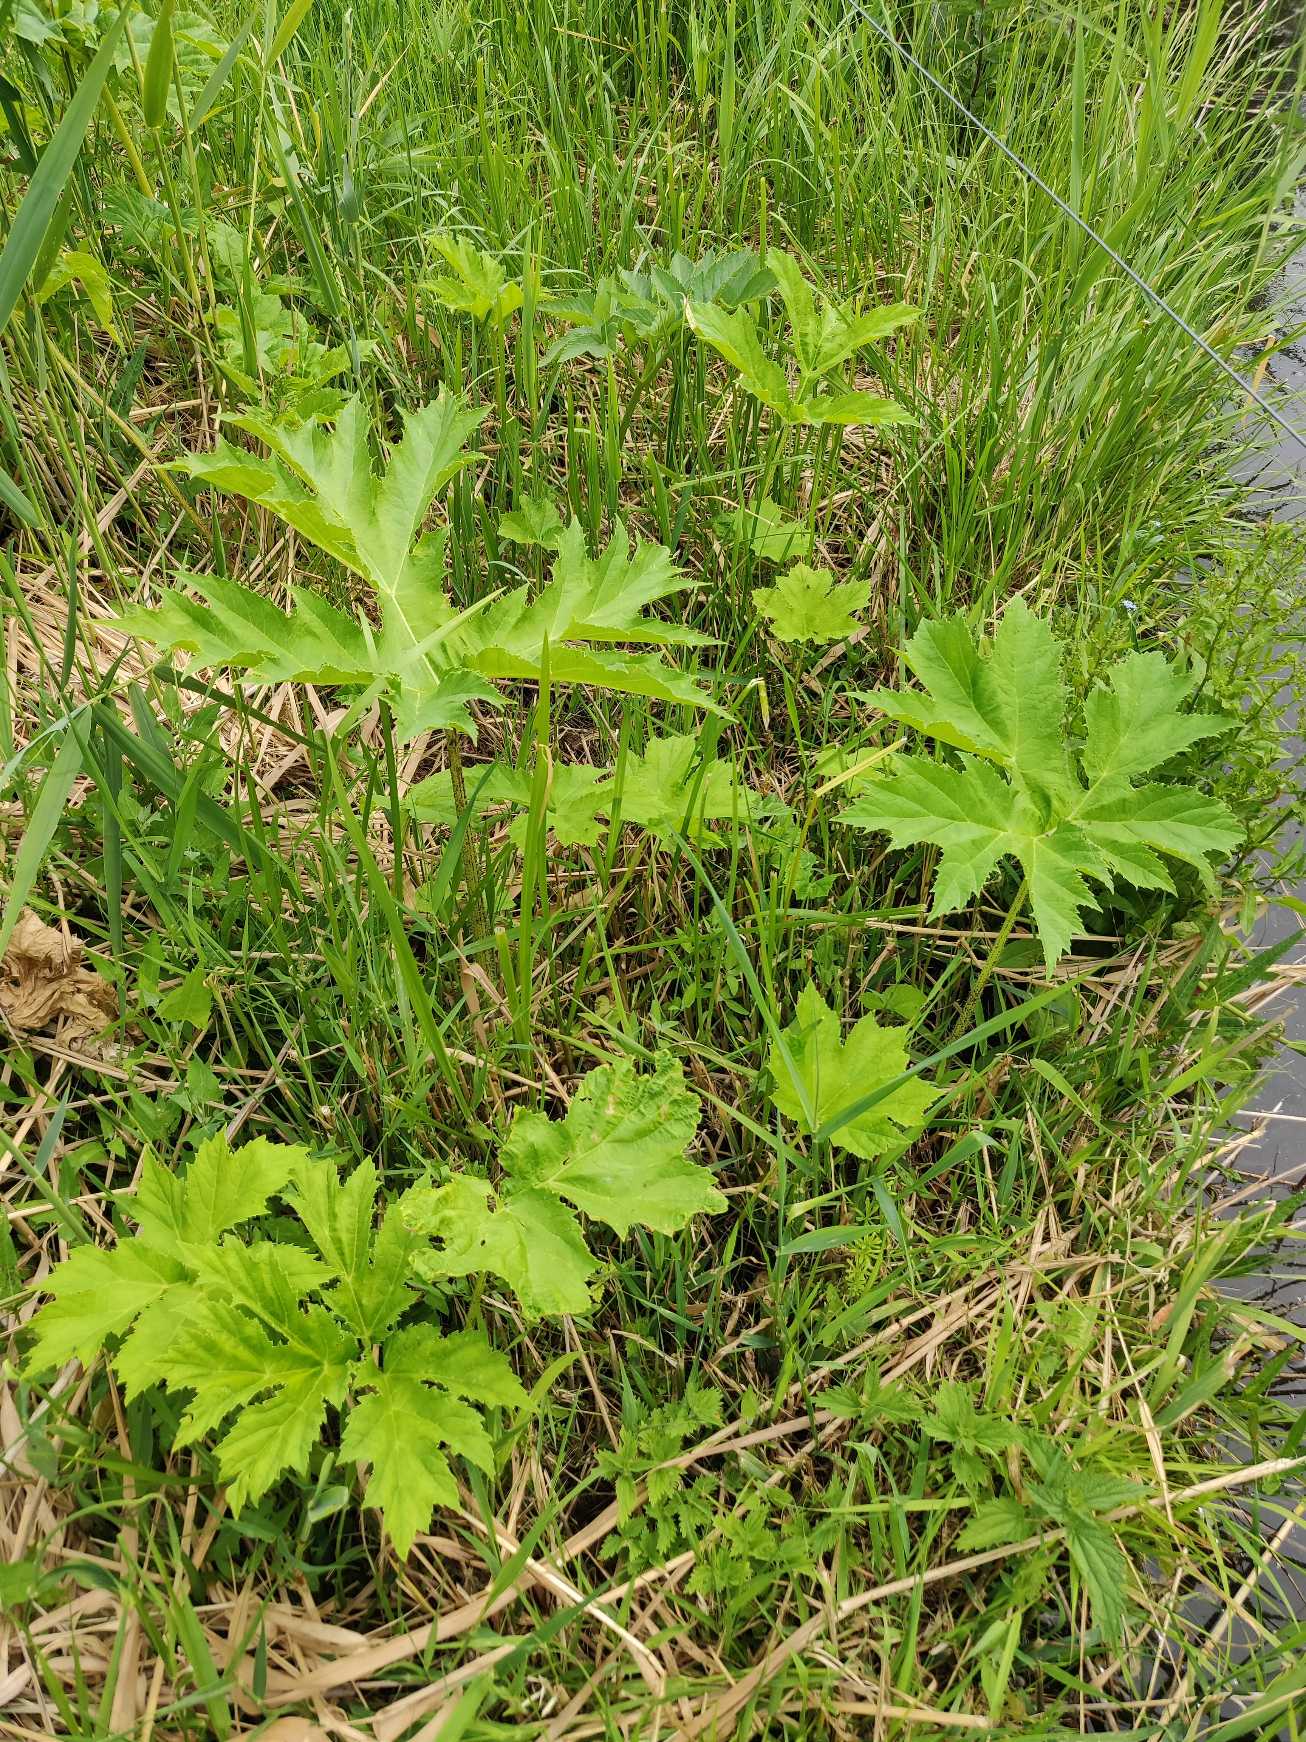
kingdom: Plantae
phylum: Tracheophyta
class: Magnoliopsida
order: Apiales
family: Apiaceae
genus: Heracleum
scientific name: Heracleum mantegazzianum
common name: Kæmpe-bjørneklo
